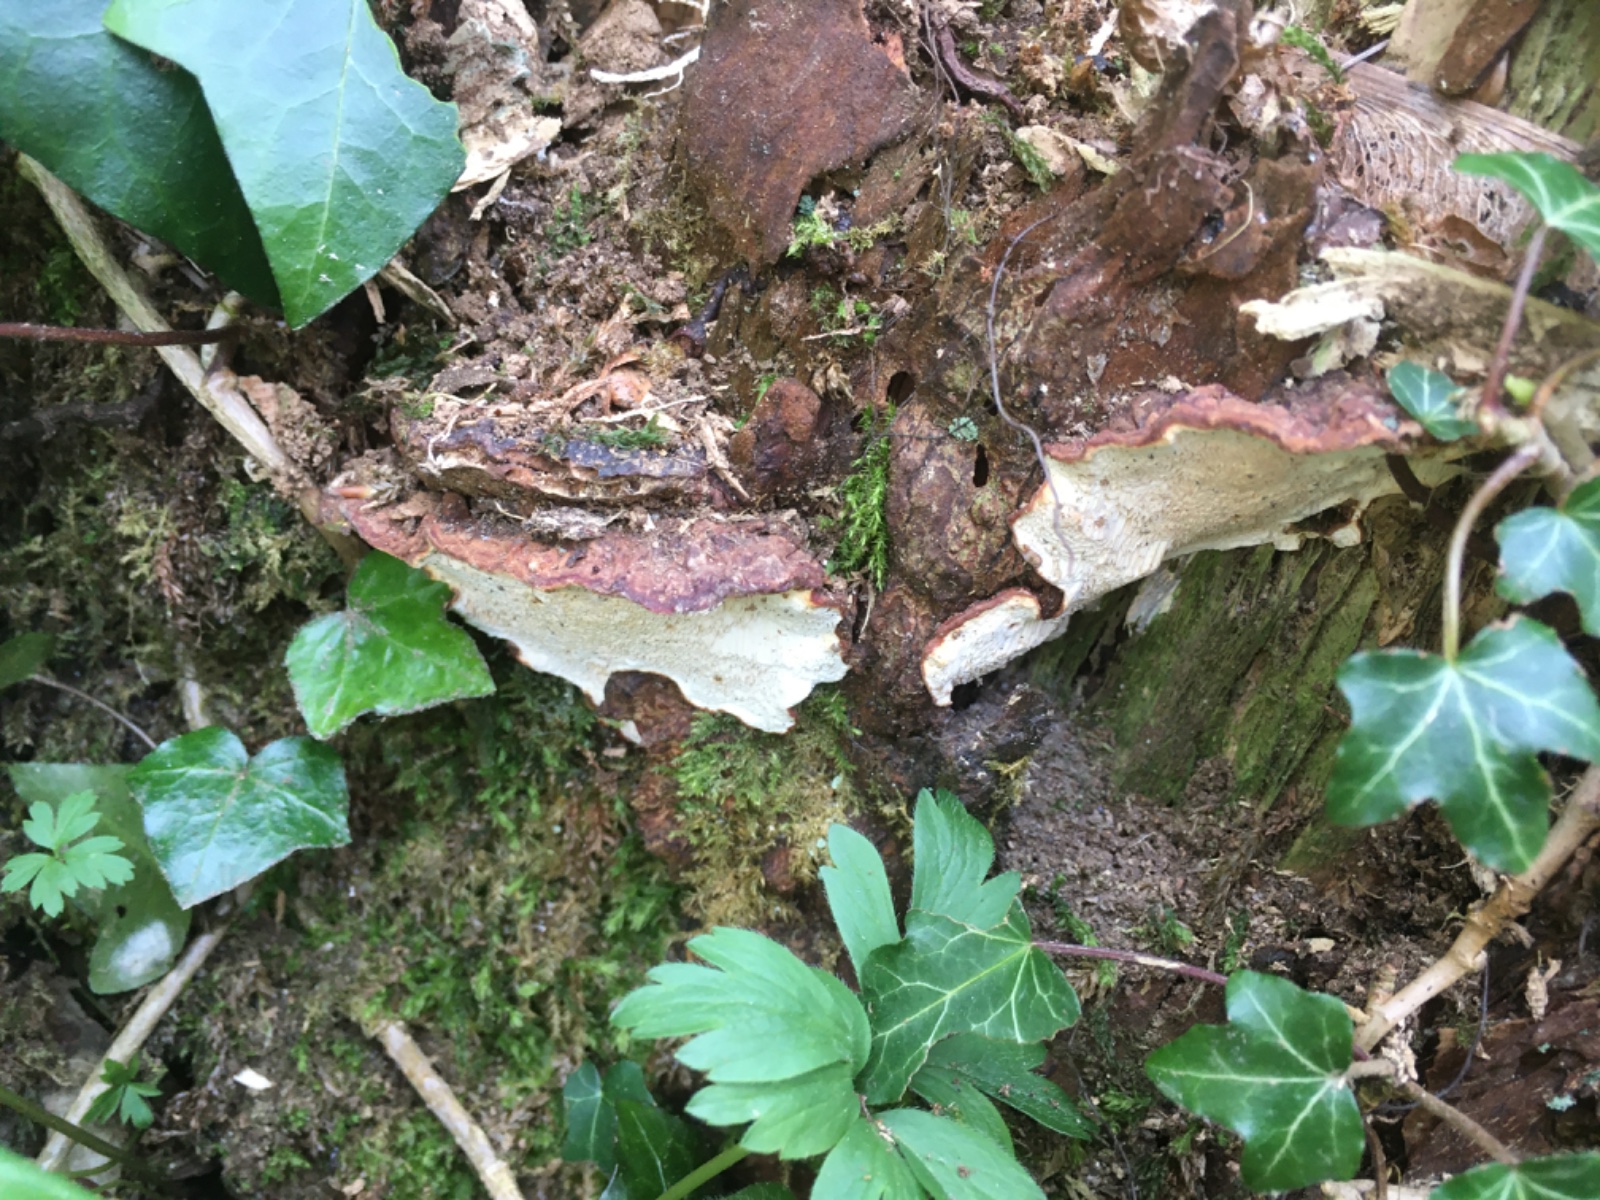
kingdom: Fungi
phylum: Basidiomycota
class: Agaricomycetes
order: Russulales
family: Bondarzewiaceae
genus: Heterobasidion
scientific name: Heterobasidion annosum
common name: almindelig rodfordærver
